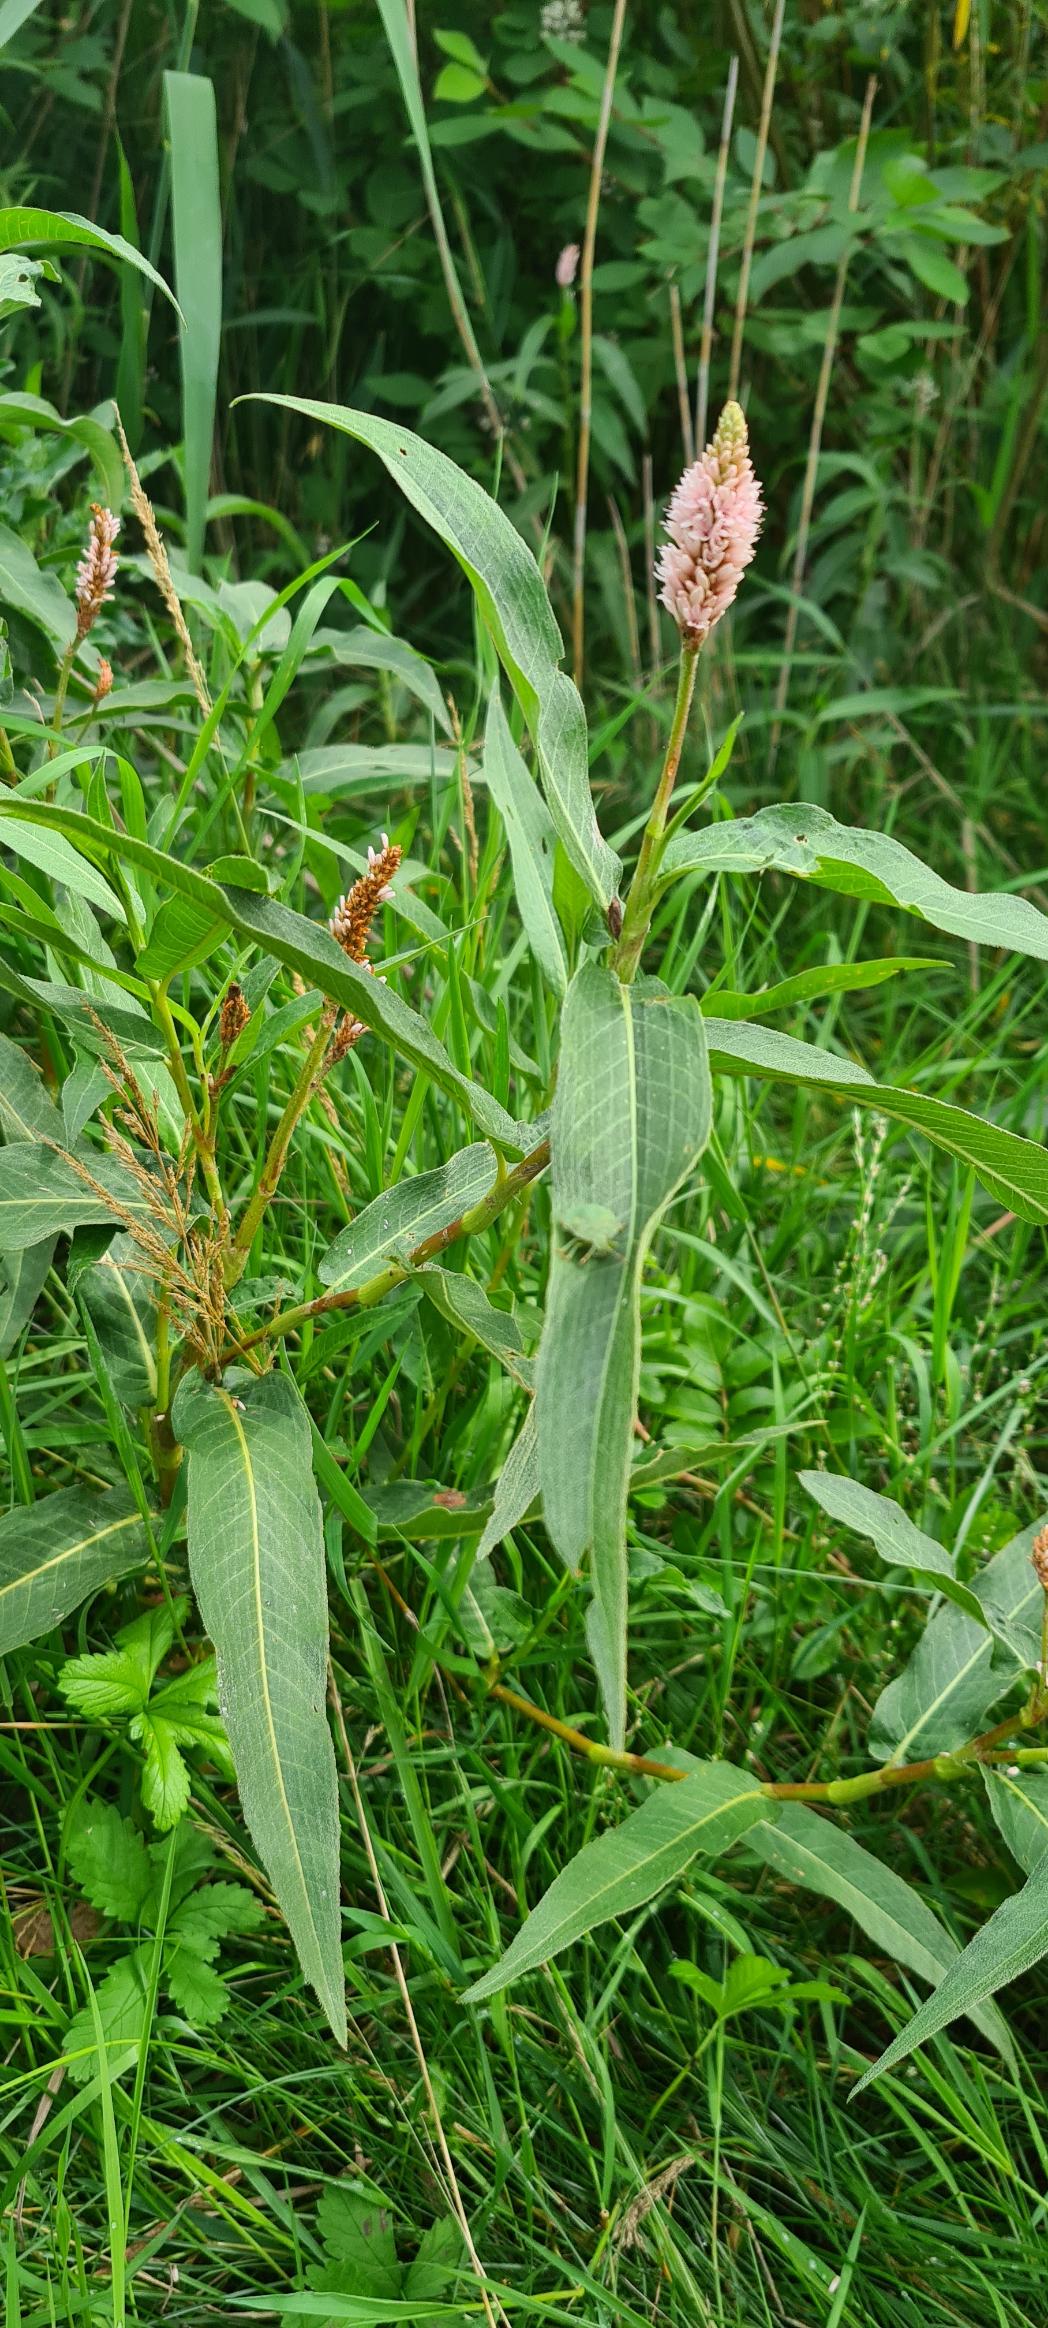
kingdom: Plantae
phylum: Tracheophyta
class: Magnoliopsida
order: Caryophyllales
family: Polygonaceae
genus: Persicaria
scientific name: Persicaria amphibia
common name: Vand-pileurt
